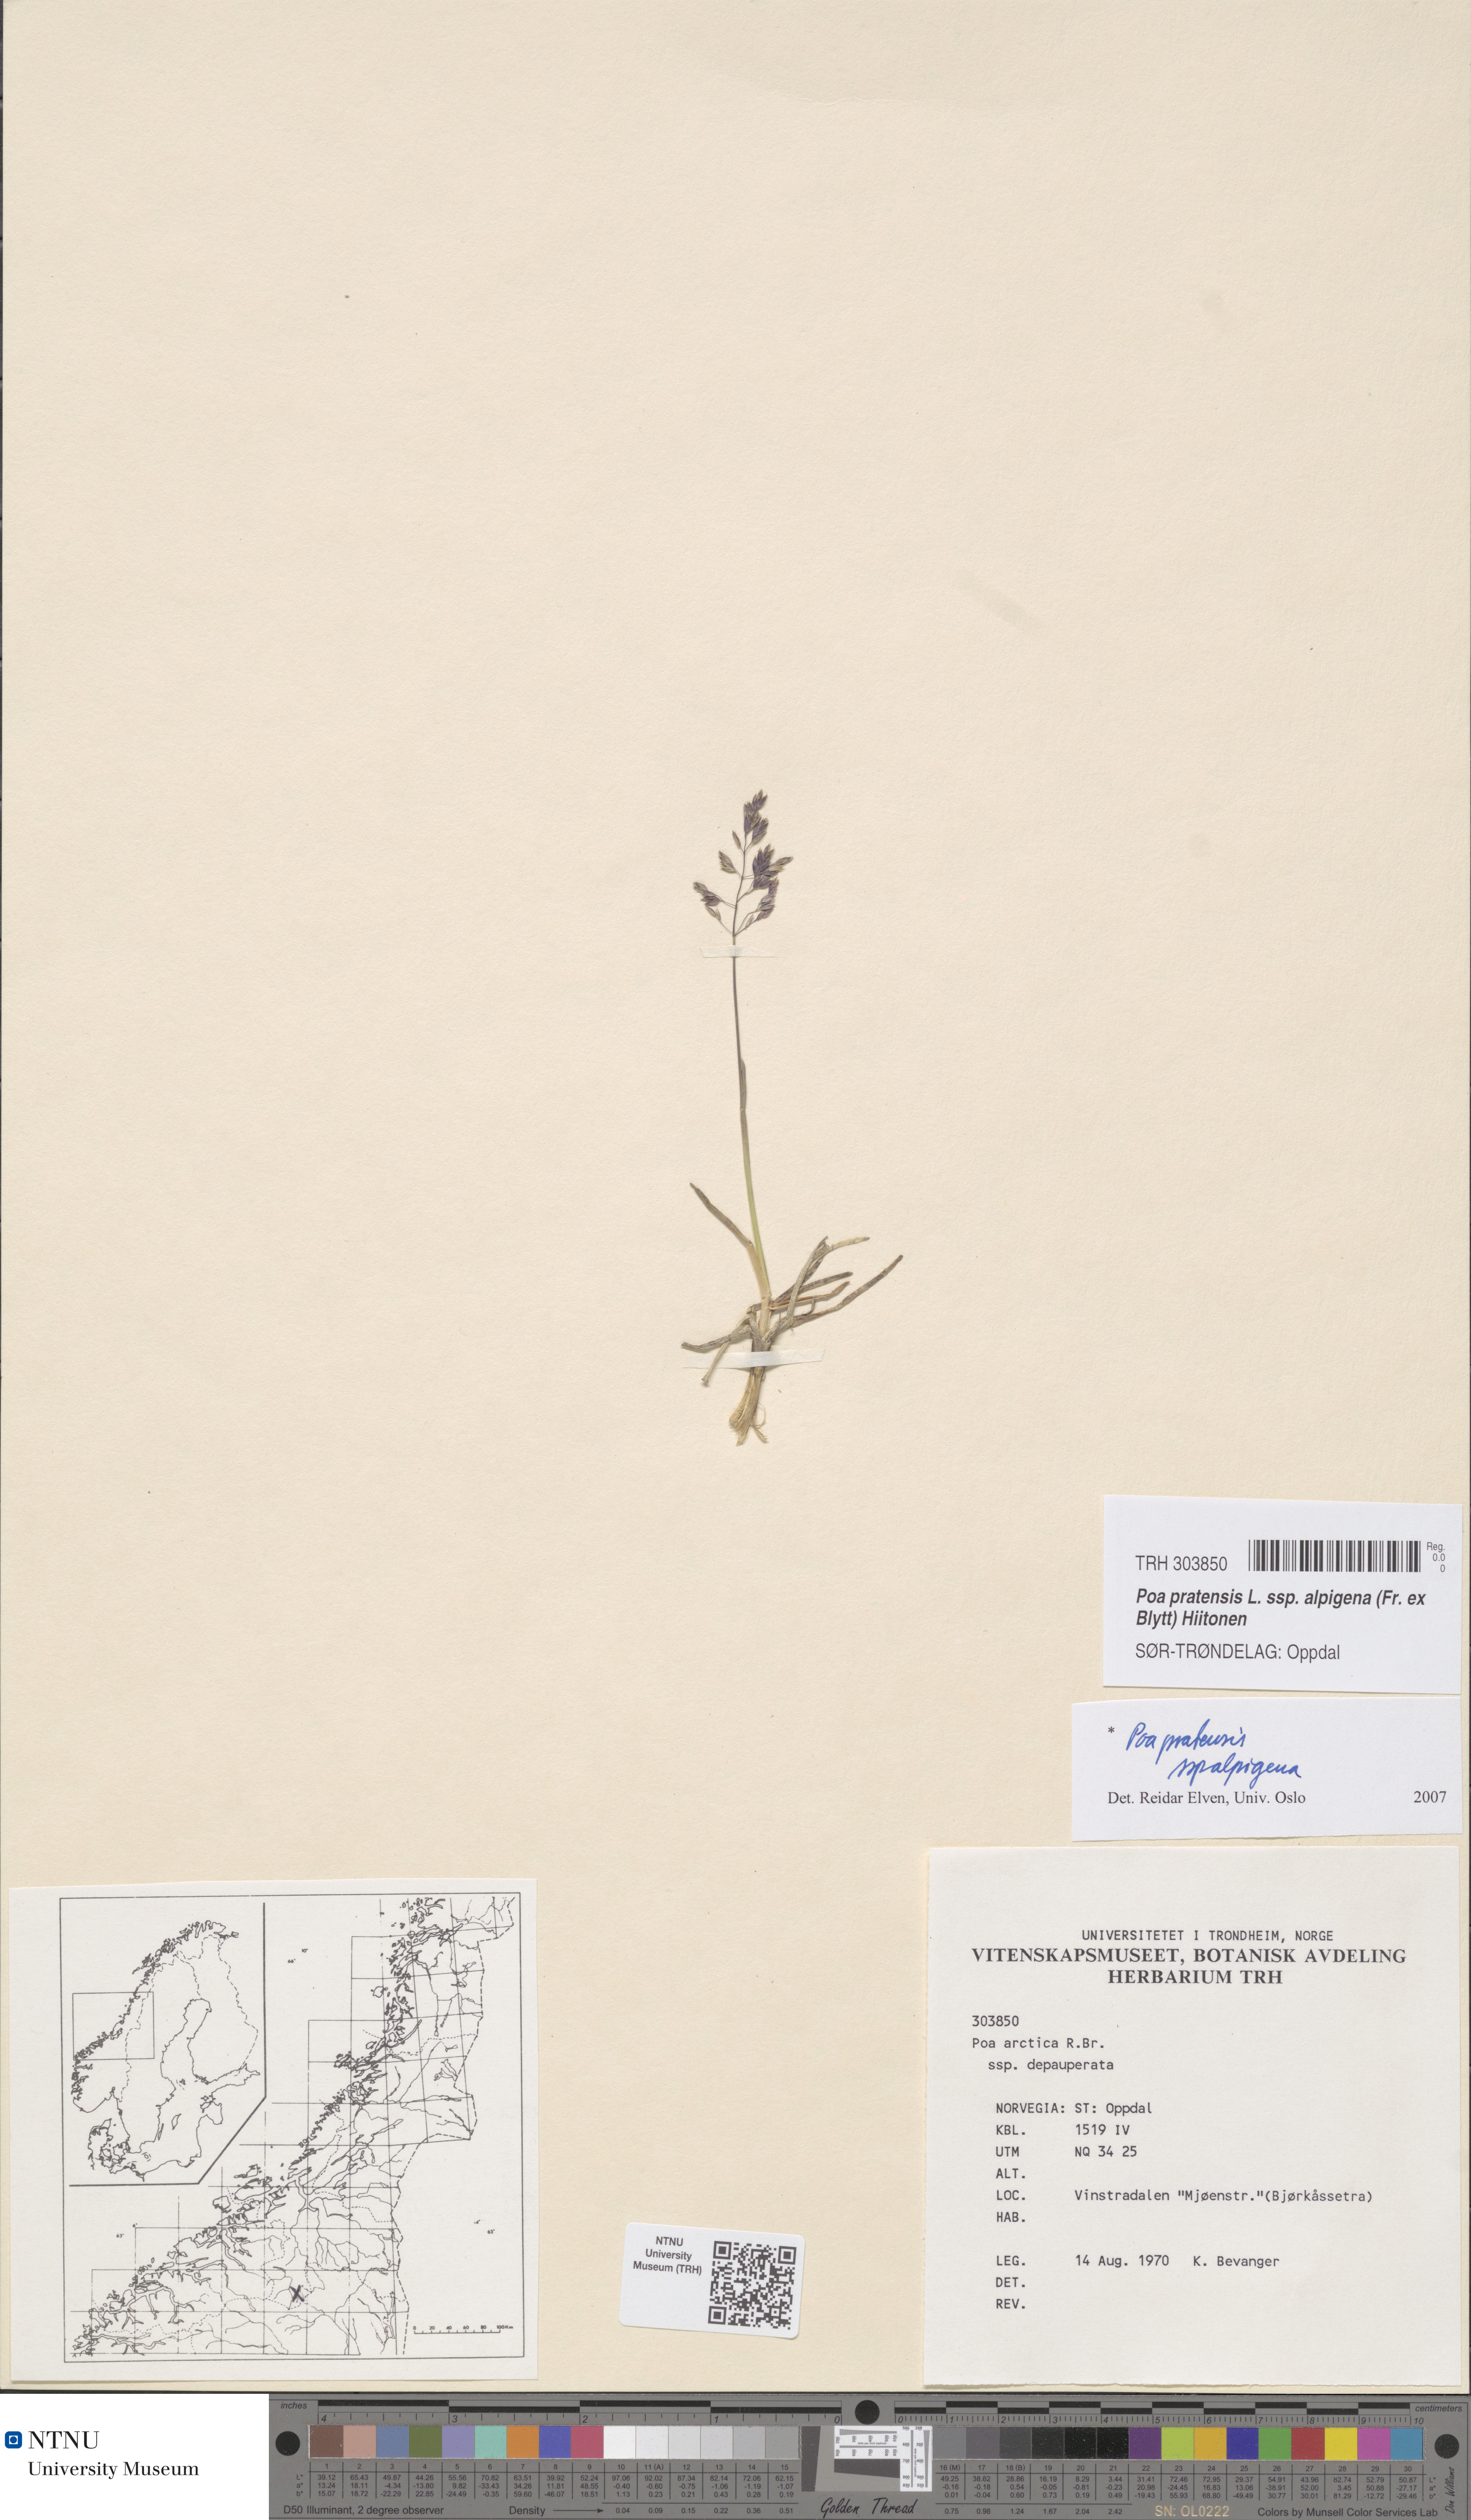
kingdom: Plantae
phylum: Tracheophyta
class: Liliopsida
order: Poales
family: Poaceae
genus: Poa
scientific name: Poa alpigena
